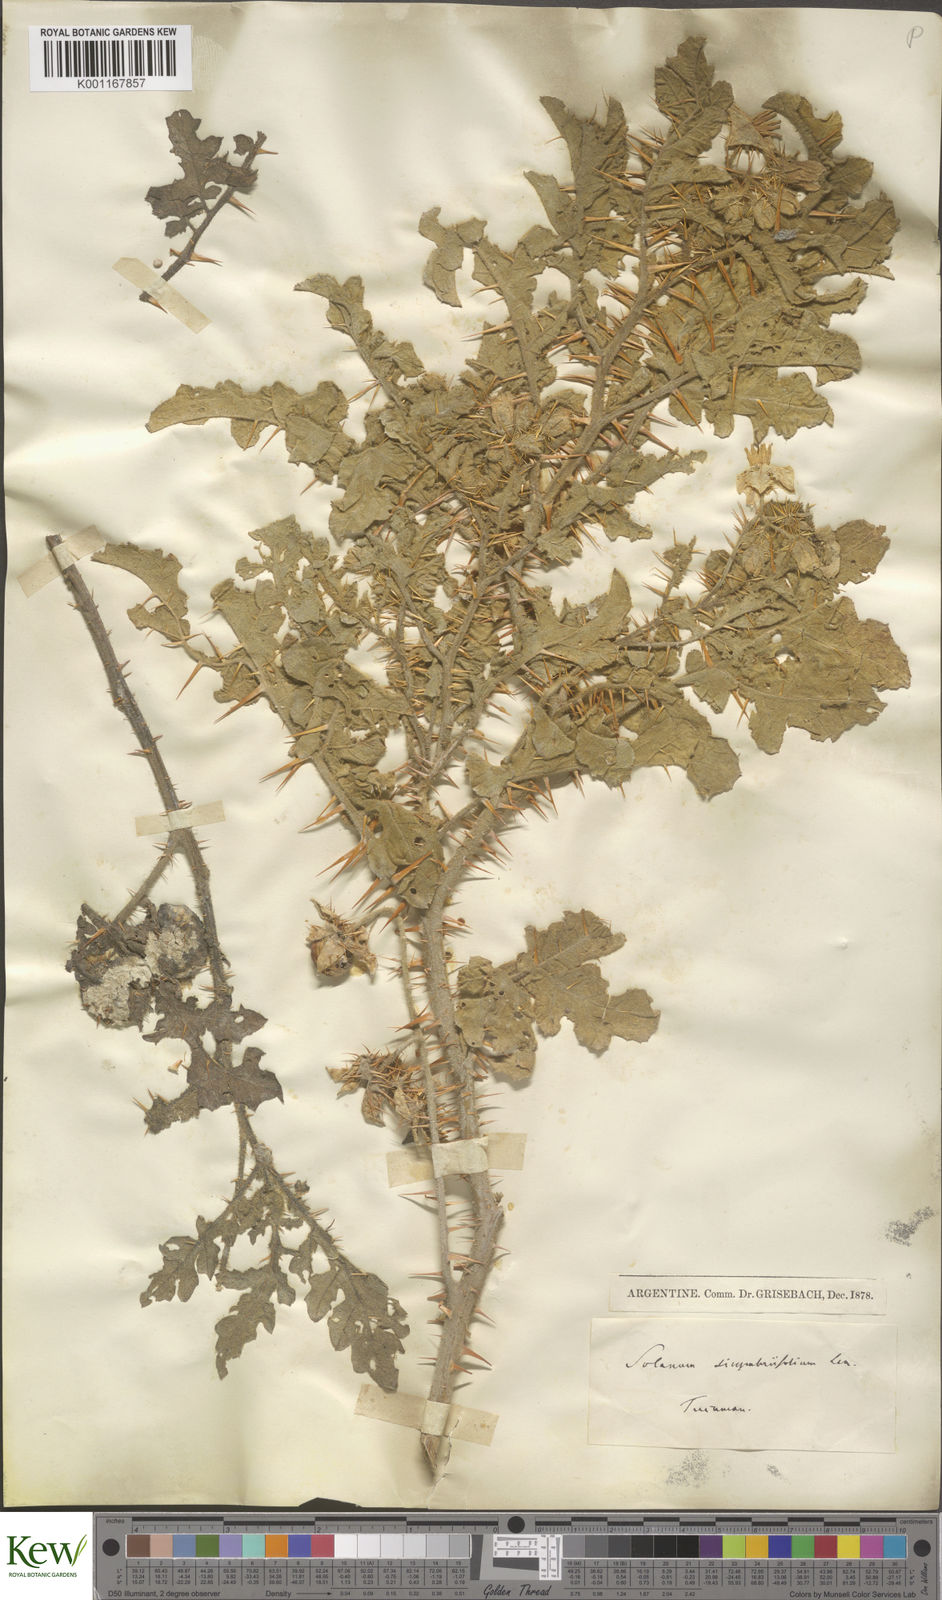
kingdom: Plantae
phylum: Tracheophyta
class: Magnoliopsida
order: Solanales
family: Solanaceae
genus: Solanum
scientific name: Solanum sisymbriifolium
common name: Red buffalo-bur
